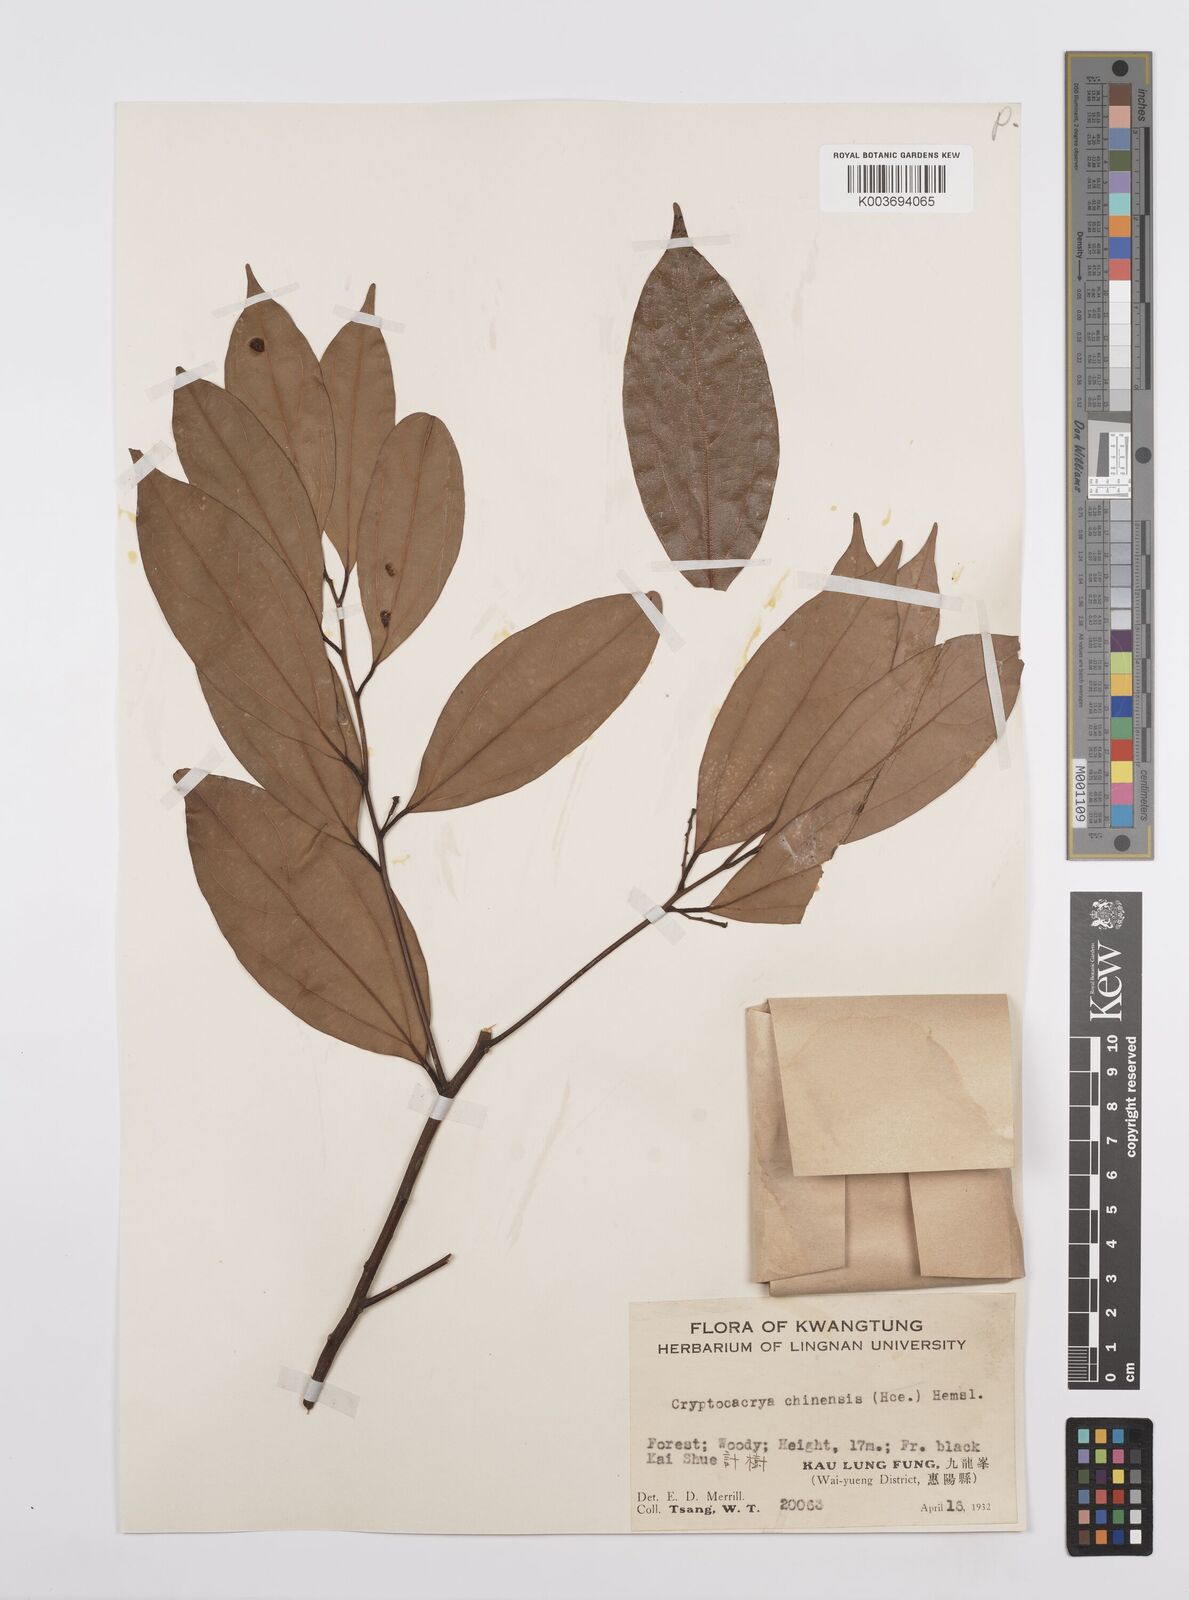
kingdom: Plantae
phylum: Tracheophyta
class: Magnoliopsida
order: Laurales
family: Lauraceae
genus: Cryptocarya
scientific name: Cryptocarya chinensis
